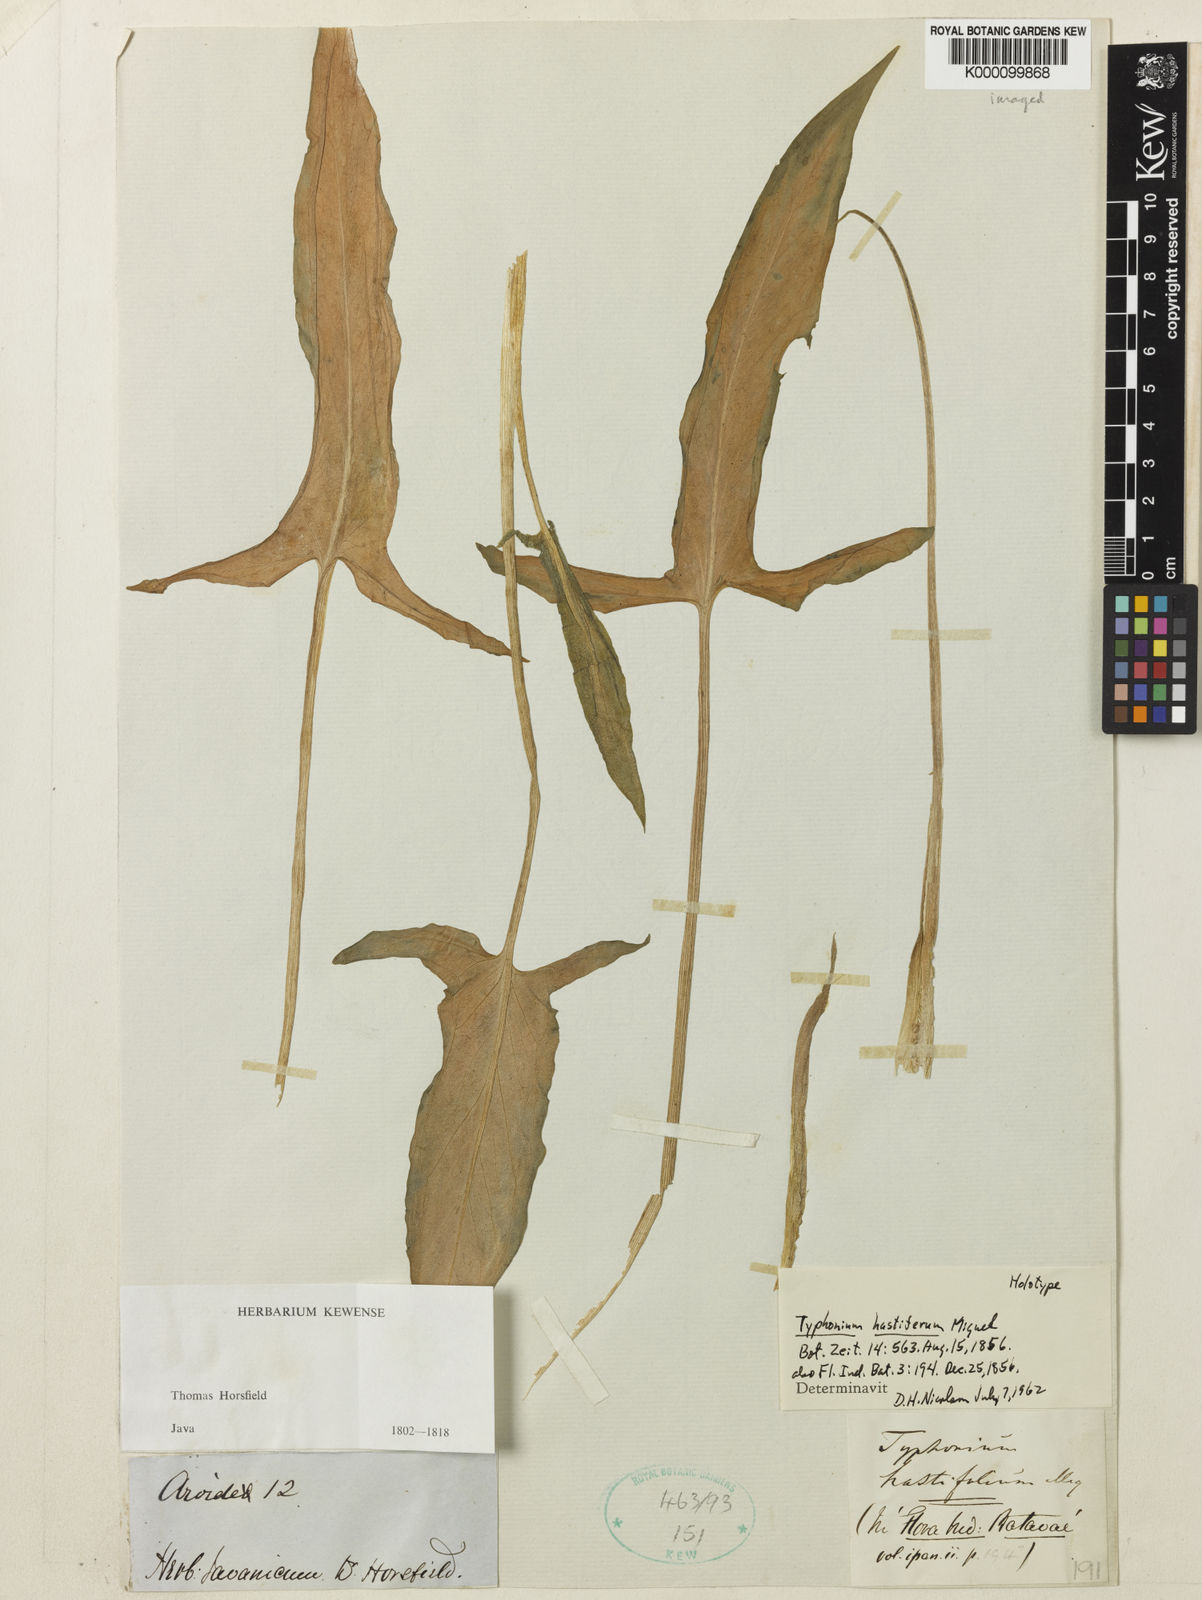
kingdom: Plantae
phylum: Tracheophyta
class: Liliopsida
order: Alismatales
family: Araceae
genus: Typhonium
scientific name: Typhonium flagelliforme
